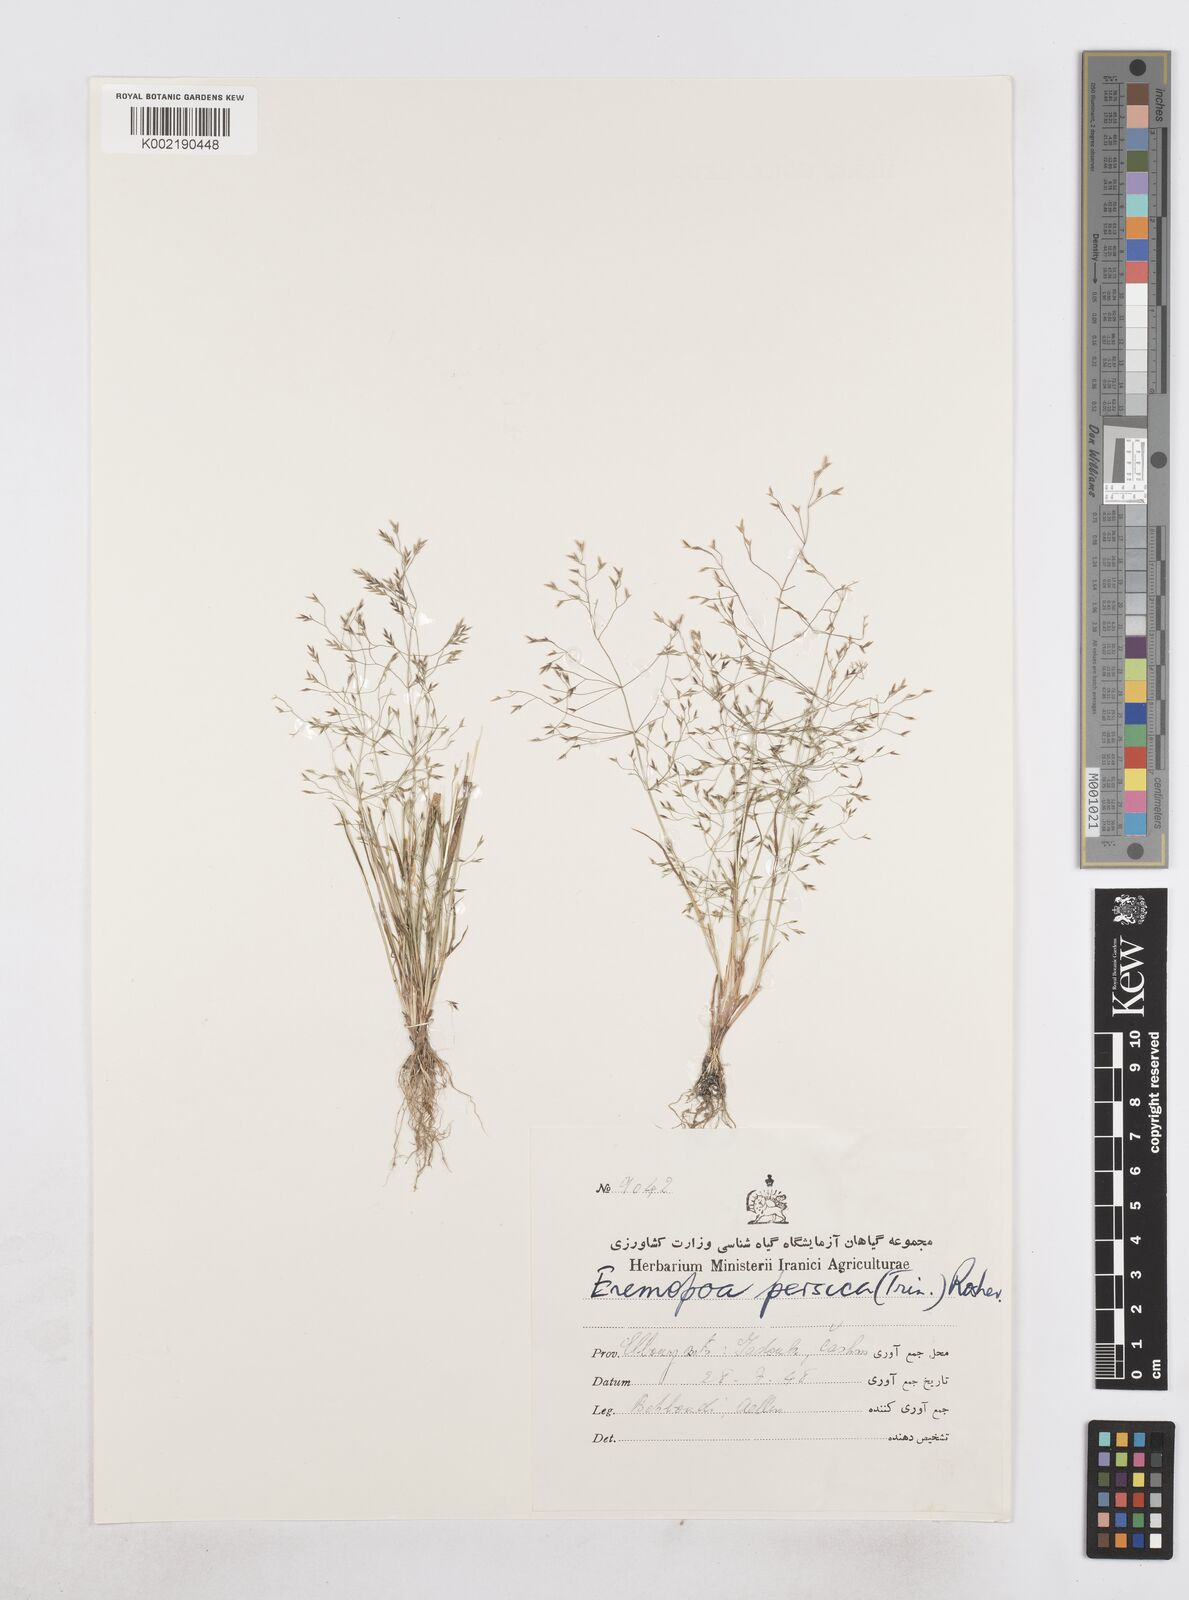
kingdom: Plantae
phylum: Tracheophyta
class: Liliopsida
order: Poales
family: Poaceae
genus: Poa
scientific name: Poa diaphora
